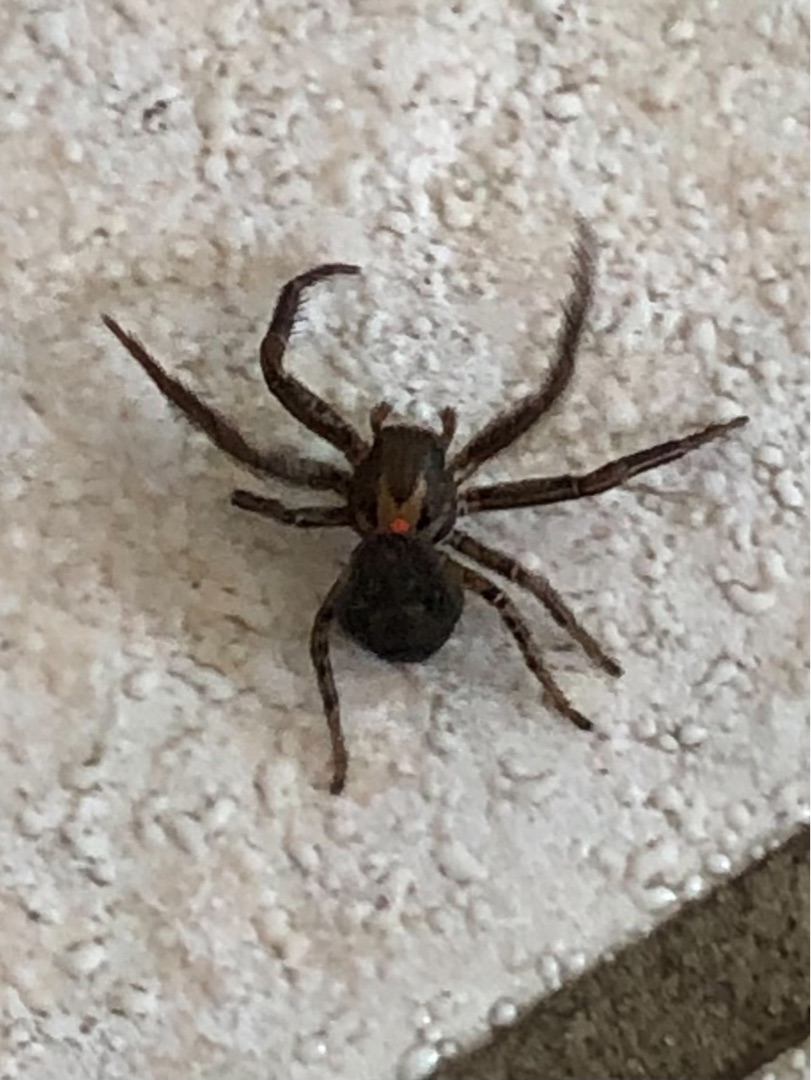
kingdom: Animalia
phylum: Arthropoda
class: Arachnida
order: Araneae
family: Thomisidae
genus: Xysticus
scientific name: Xysticus
